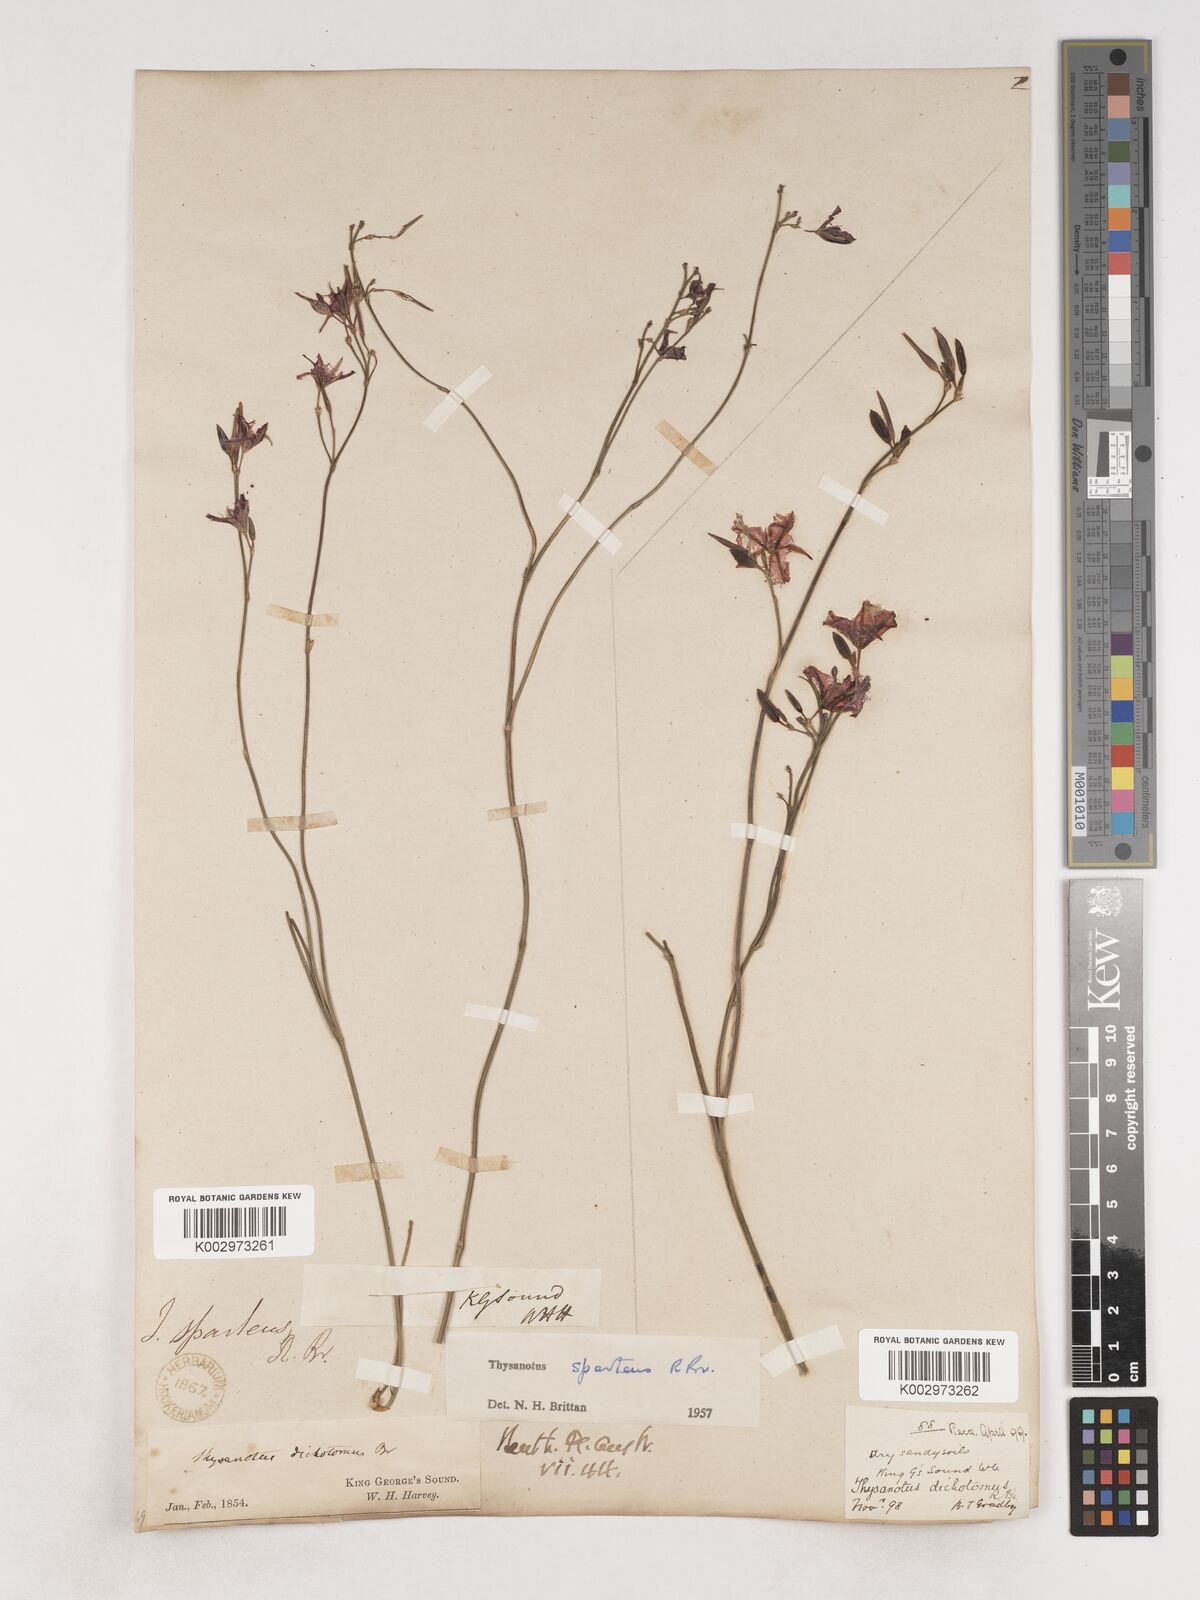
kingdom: Plantae
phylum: Tracheophyta
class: Liliopsida
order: Asparagales
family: Asparagaceae
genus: Thysanotus
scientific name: Thysanotus sparteus
